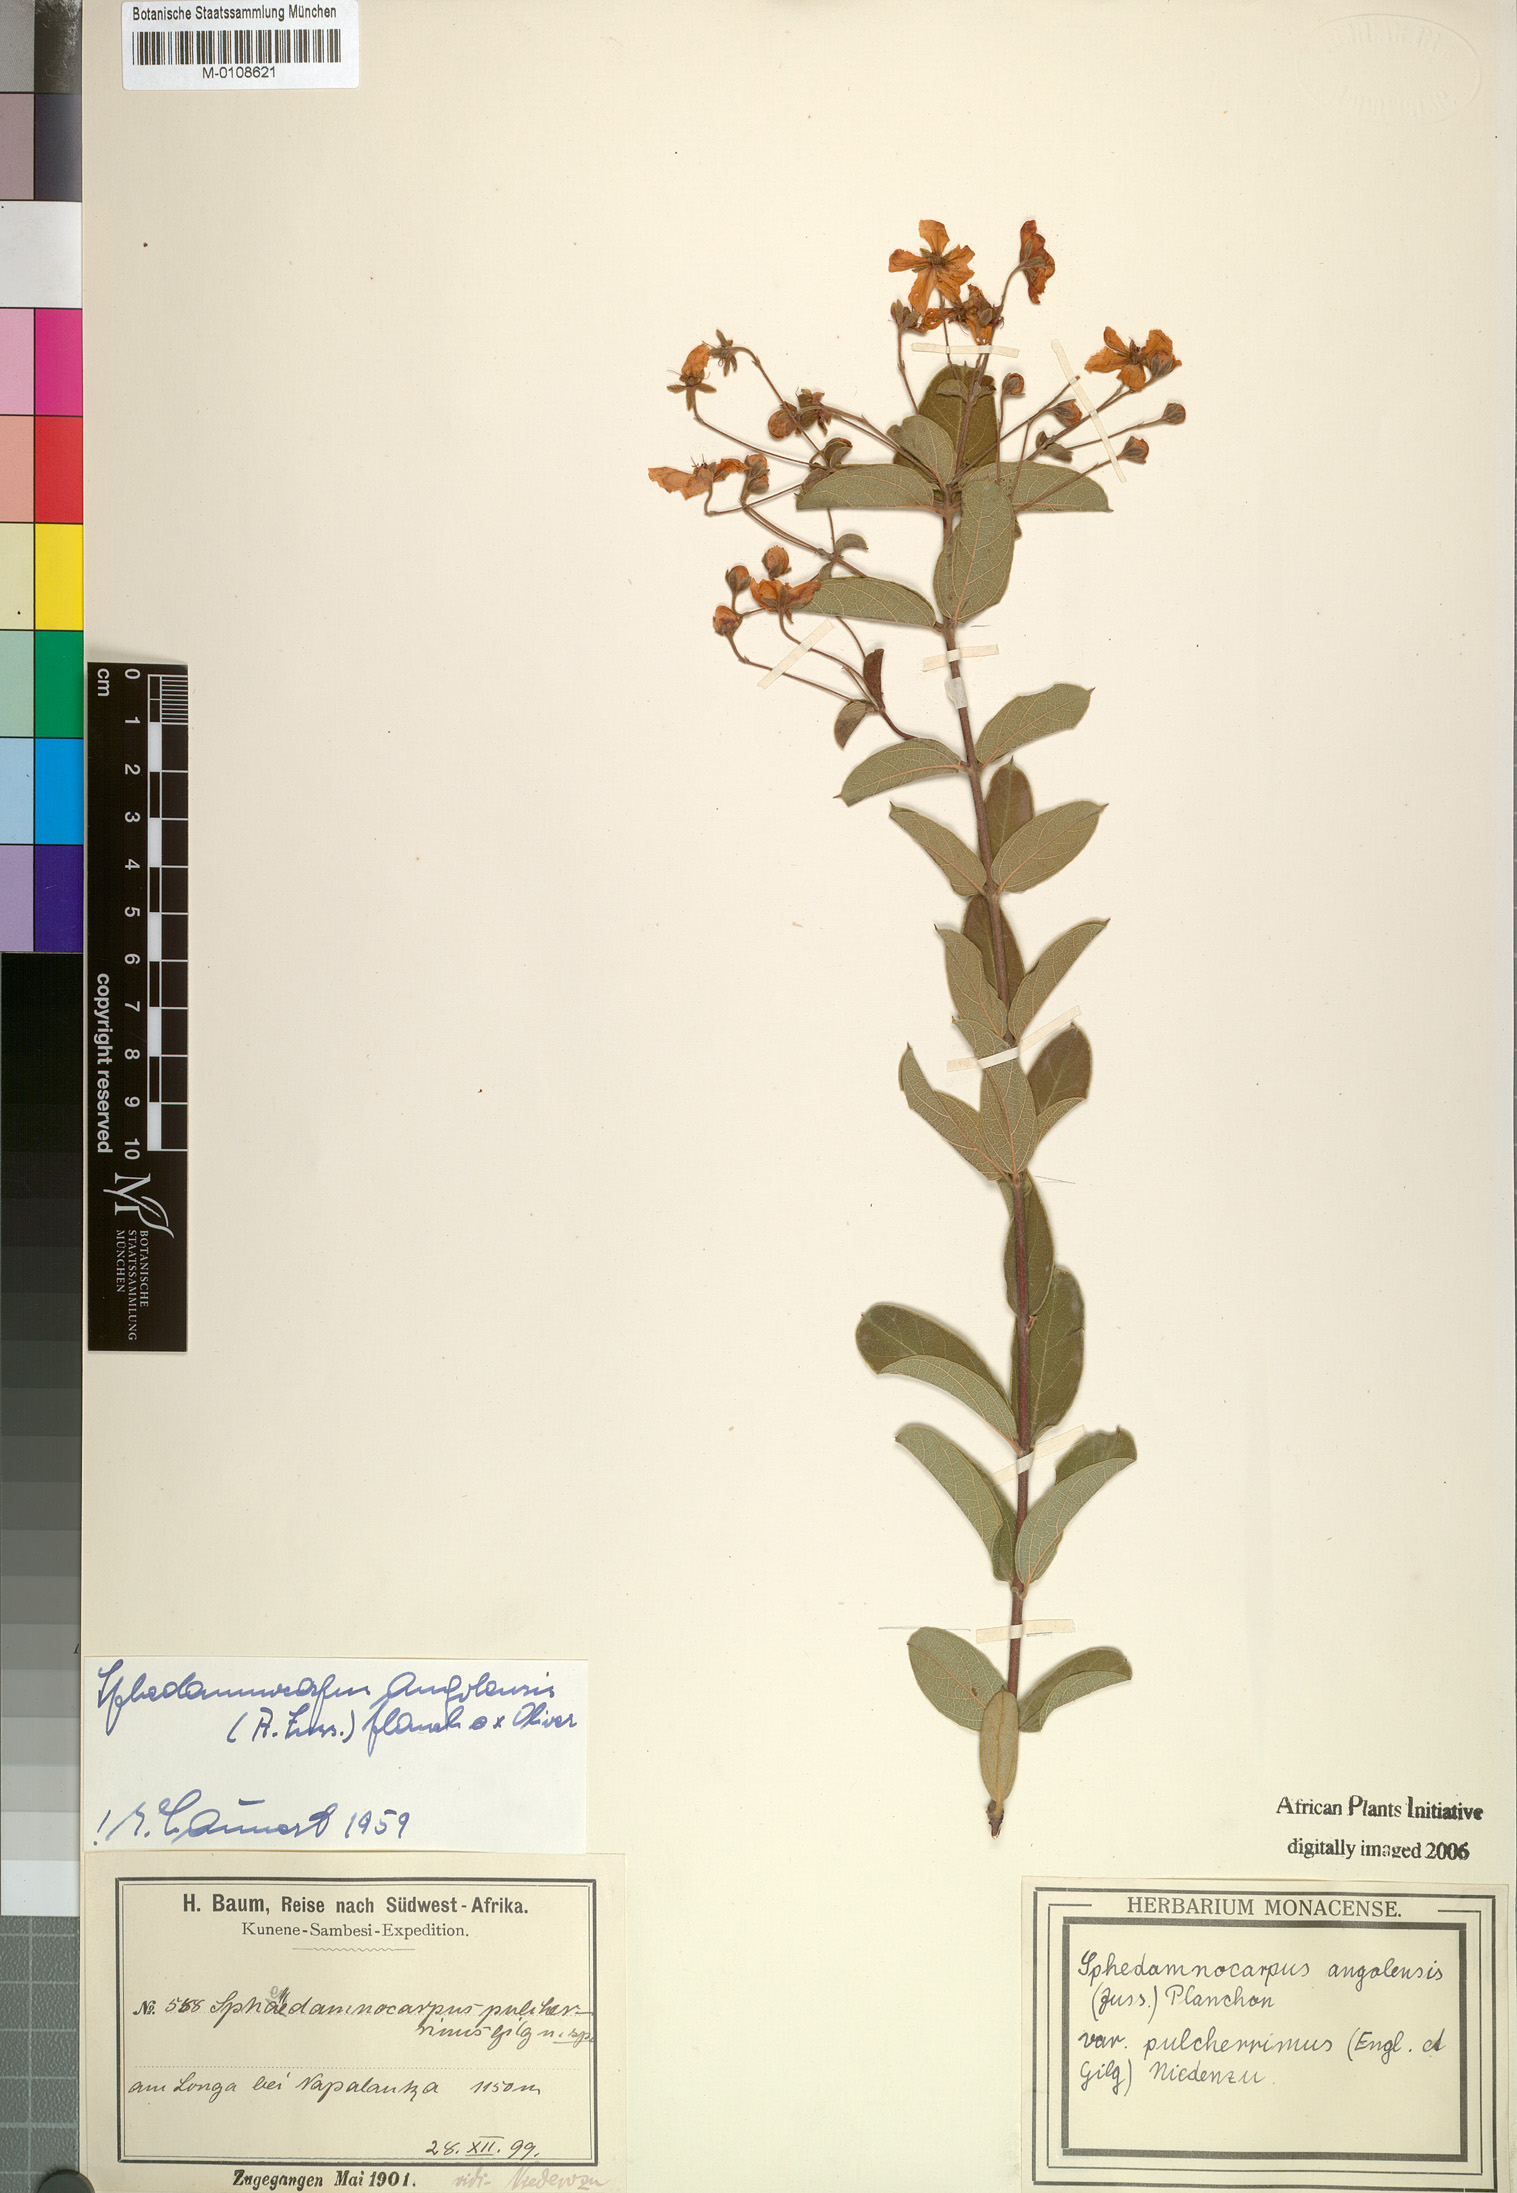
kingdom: Plantae
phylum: Tracheophyta
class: Magnoliopsida
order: Malpighiales
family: Malpighiaceae
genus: Sphedamnocarpus
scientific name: Sphedamnocarpus pruriens
